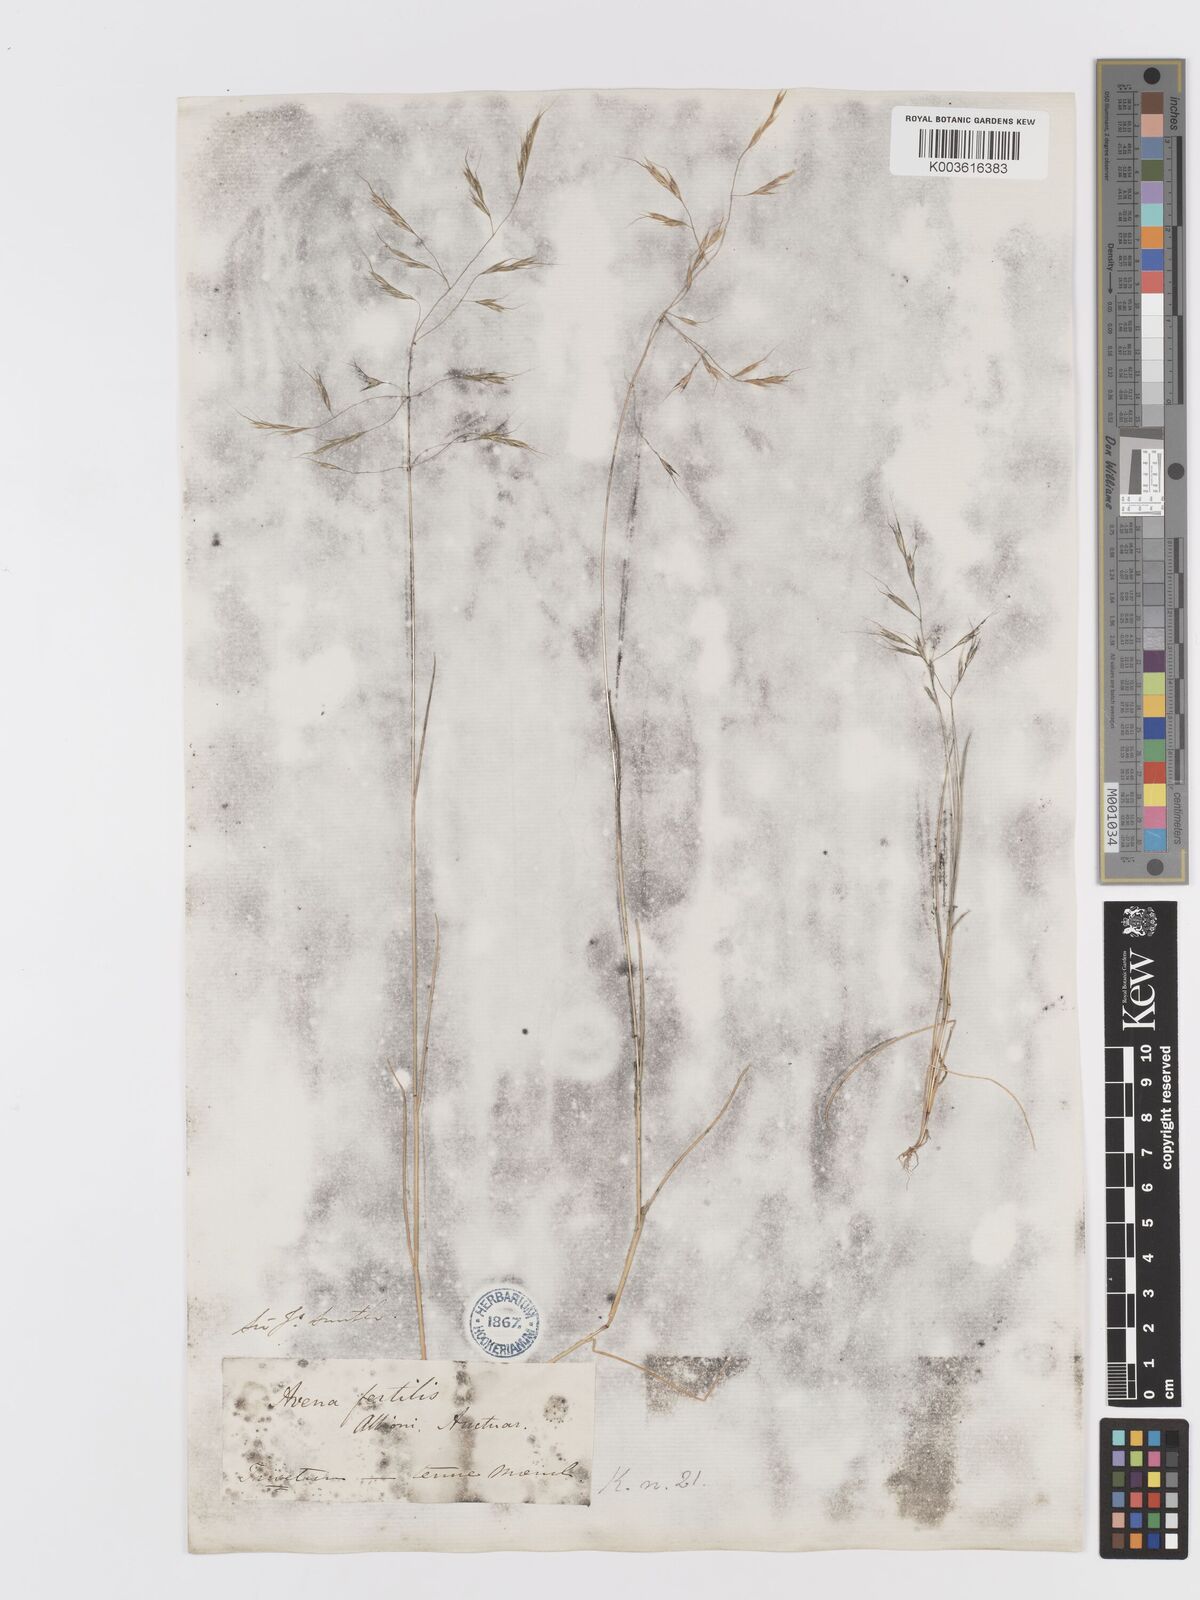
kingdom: Plantae
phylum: Tracheophyta
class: Liliopsida
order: Poales
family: Poaceae
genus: Ventenata
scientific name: Ventenata dubia
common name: North africa grass
